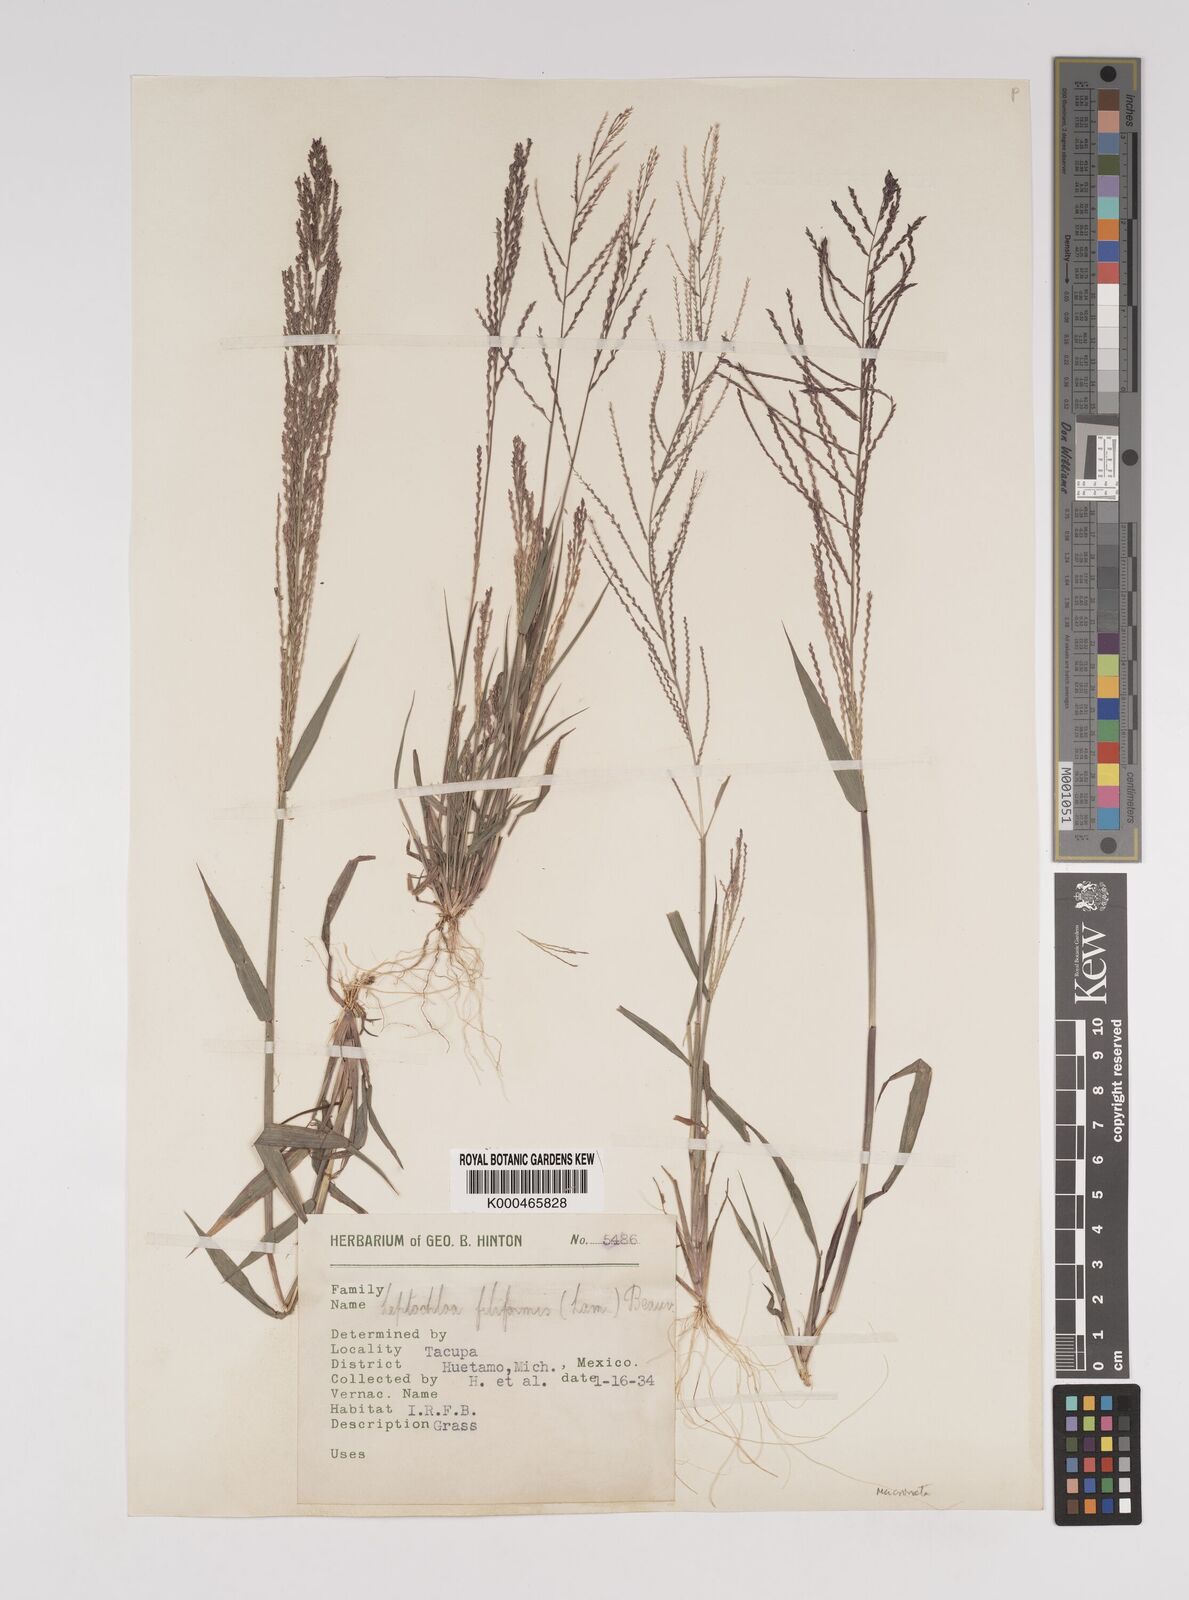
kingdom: Plantae
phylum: Tracheophyta
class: Liliopsida
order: Poales
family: Poaceae
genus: Leptochloa
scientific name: Leptochloa panicea
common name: Mucronate sprangletop
